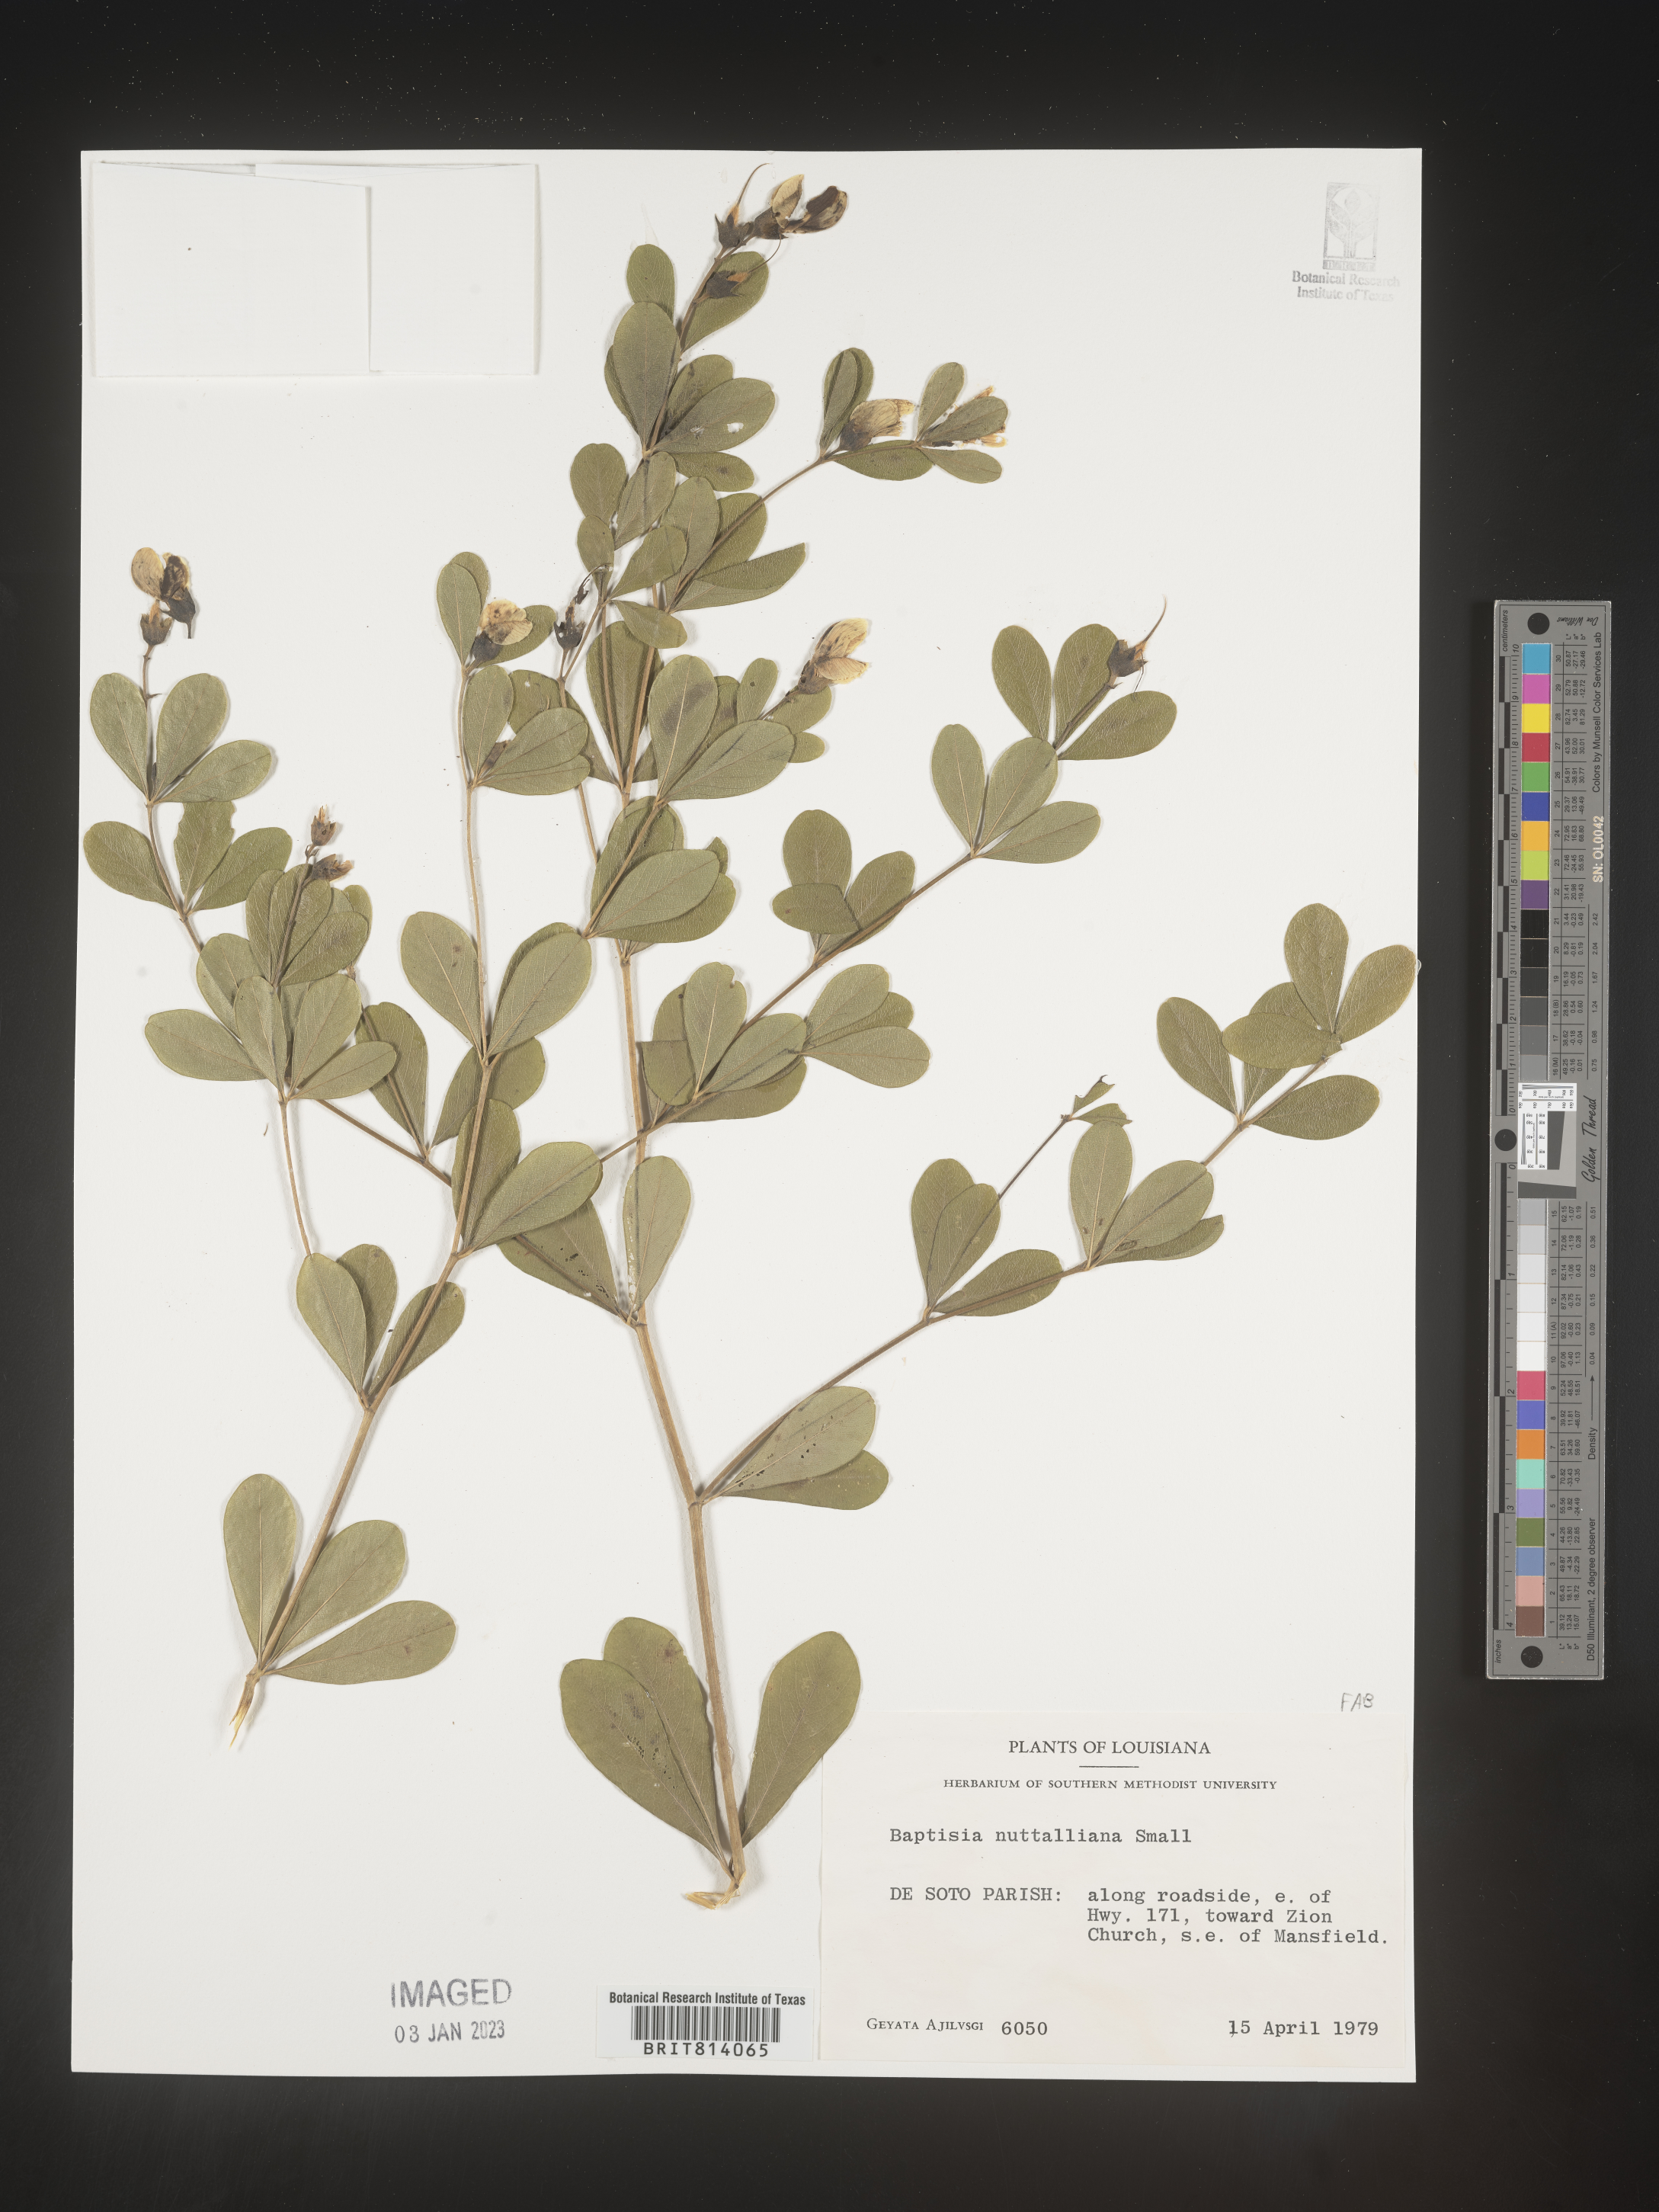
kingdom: Plantae
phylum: Tracheophyta
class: Magnoliopsida
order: Fabales
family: Fabaceae
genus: Baptisia
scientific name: Baptisia nuttalliana
